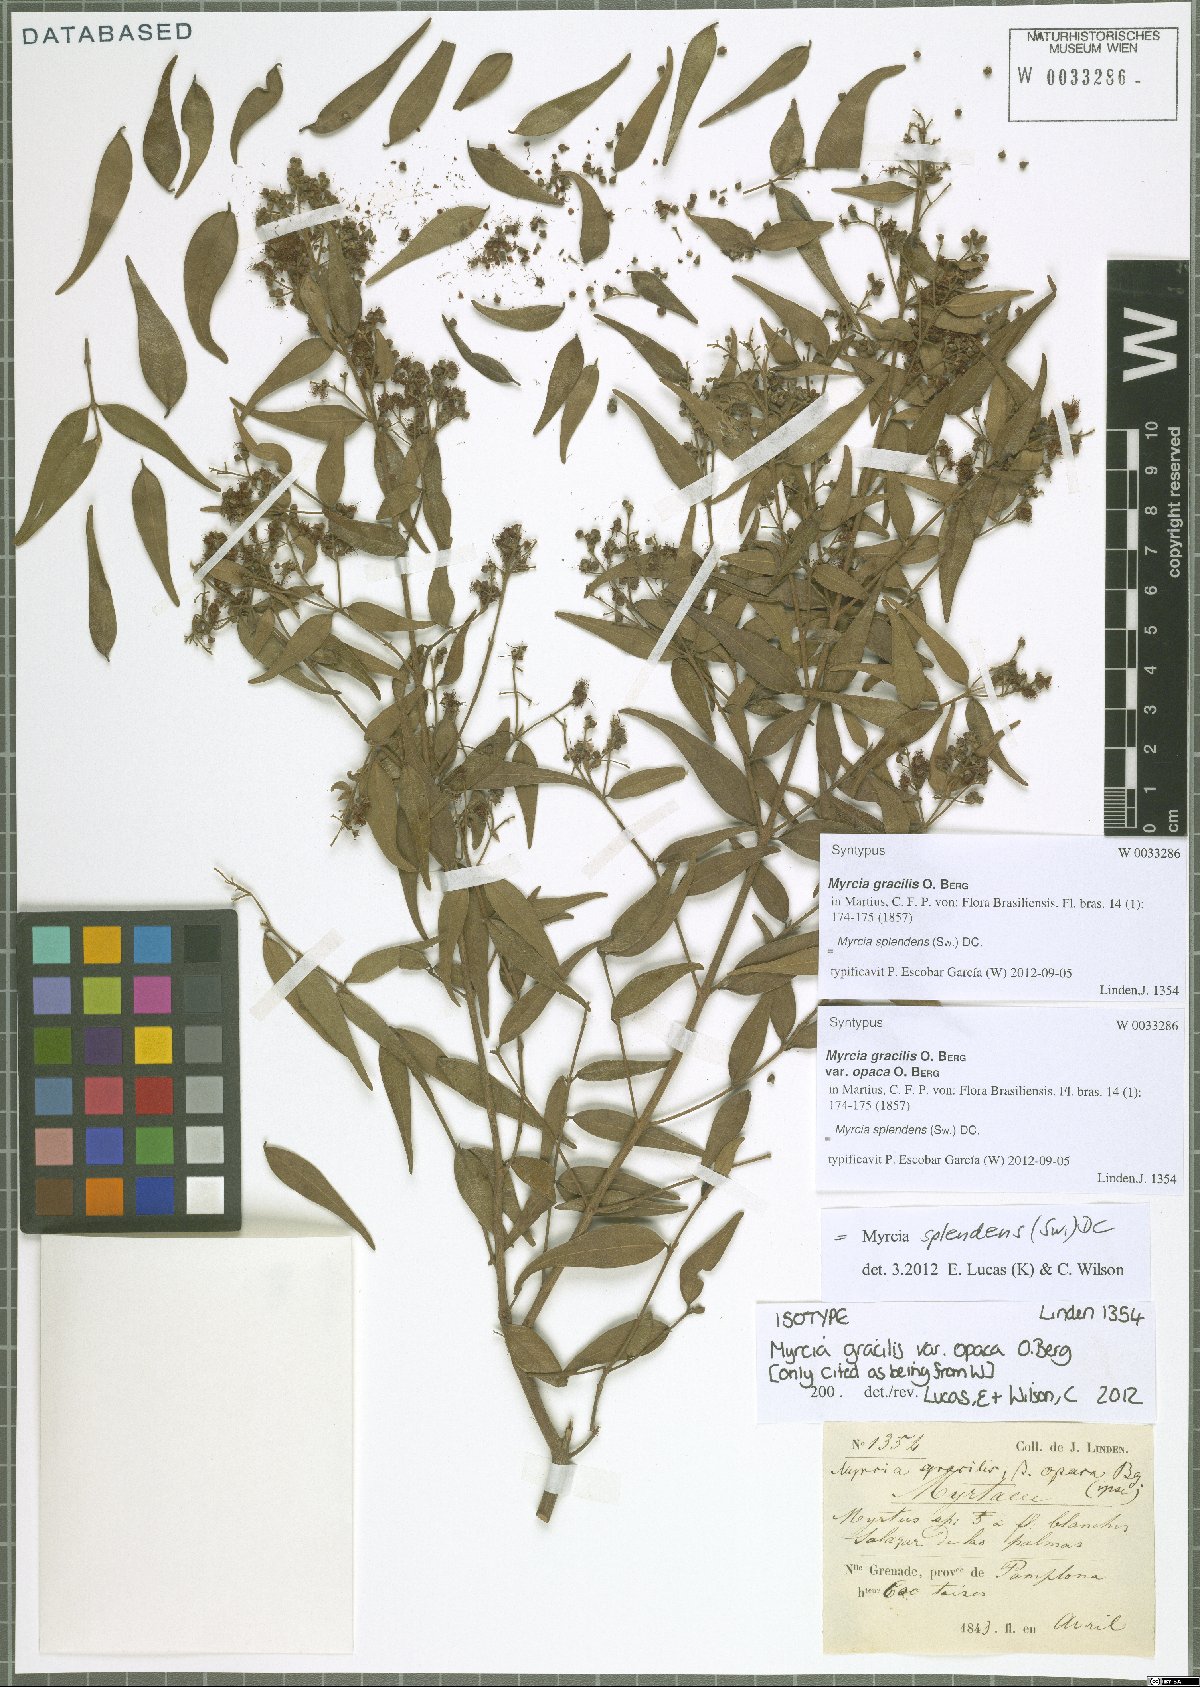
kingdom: Plantae
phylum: Tracheophyta
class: Magnoliopsida
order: Myrtales
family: Myrtaceae
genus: Myrcia
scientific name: Myrcia splendens
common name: Surinam cherry
